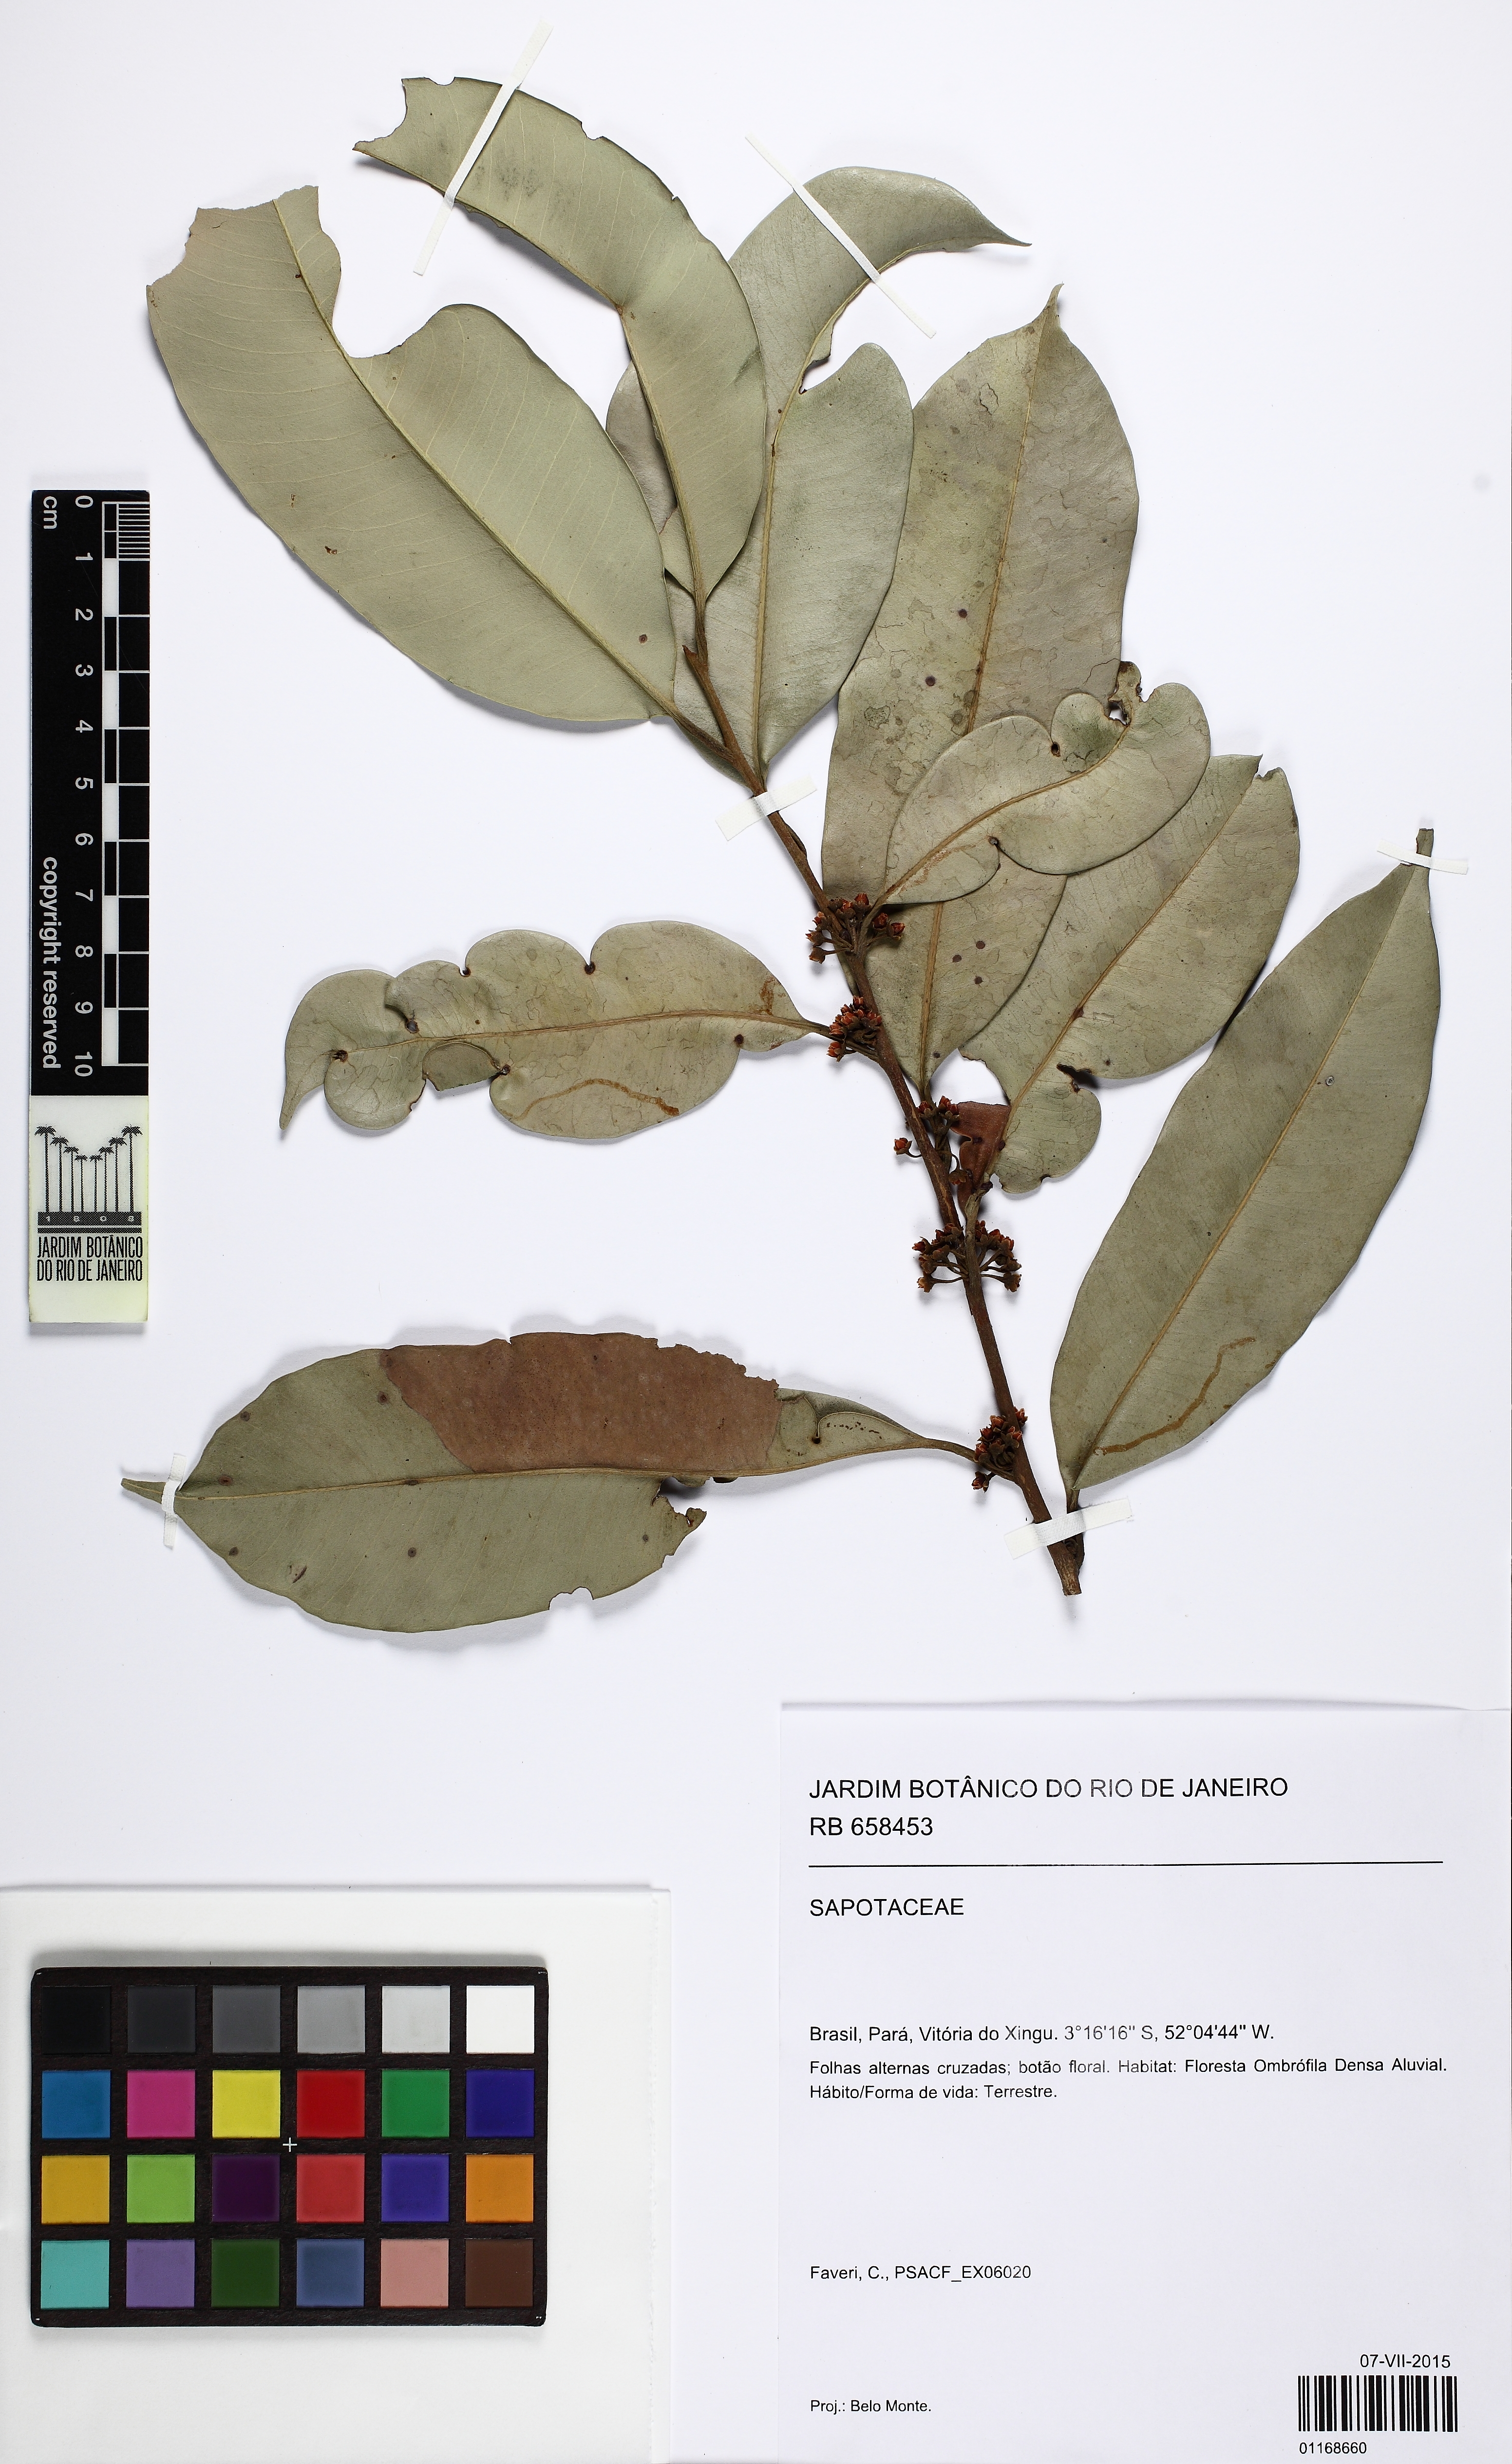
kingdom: Plantae
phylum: Tracheophyta
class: Magnoliopsida
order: Ericales
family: Sapotaceae
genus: Pouteria
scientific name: Pouteria cuspidata
